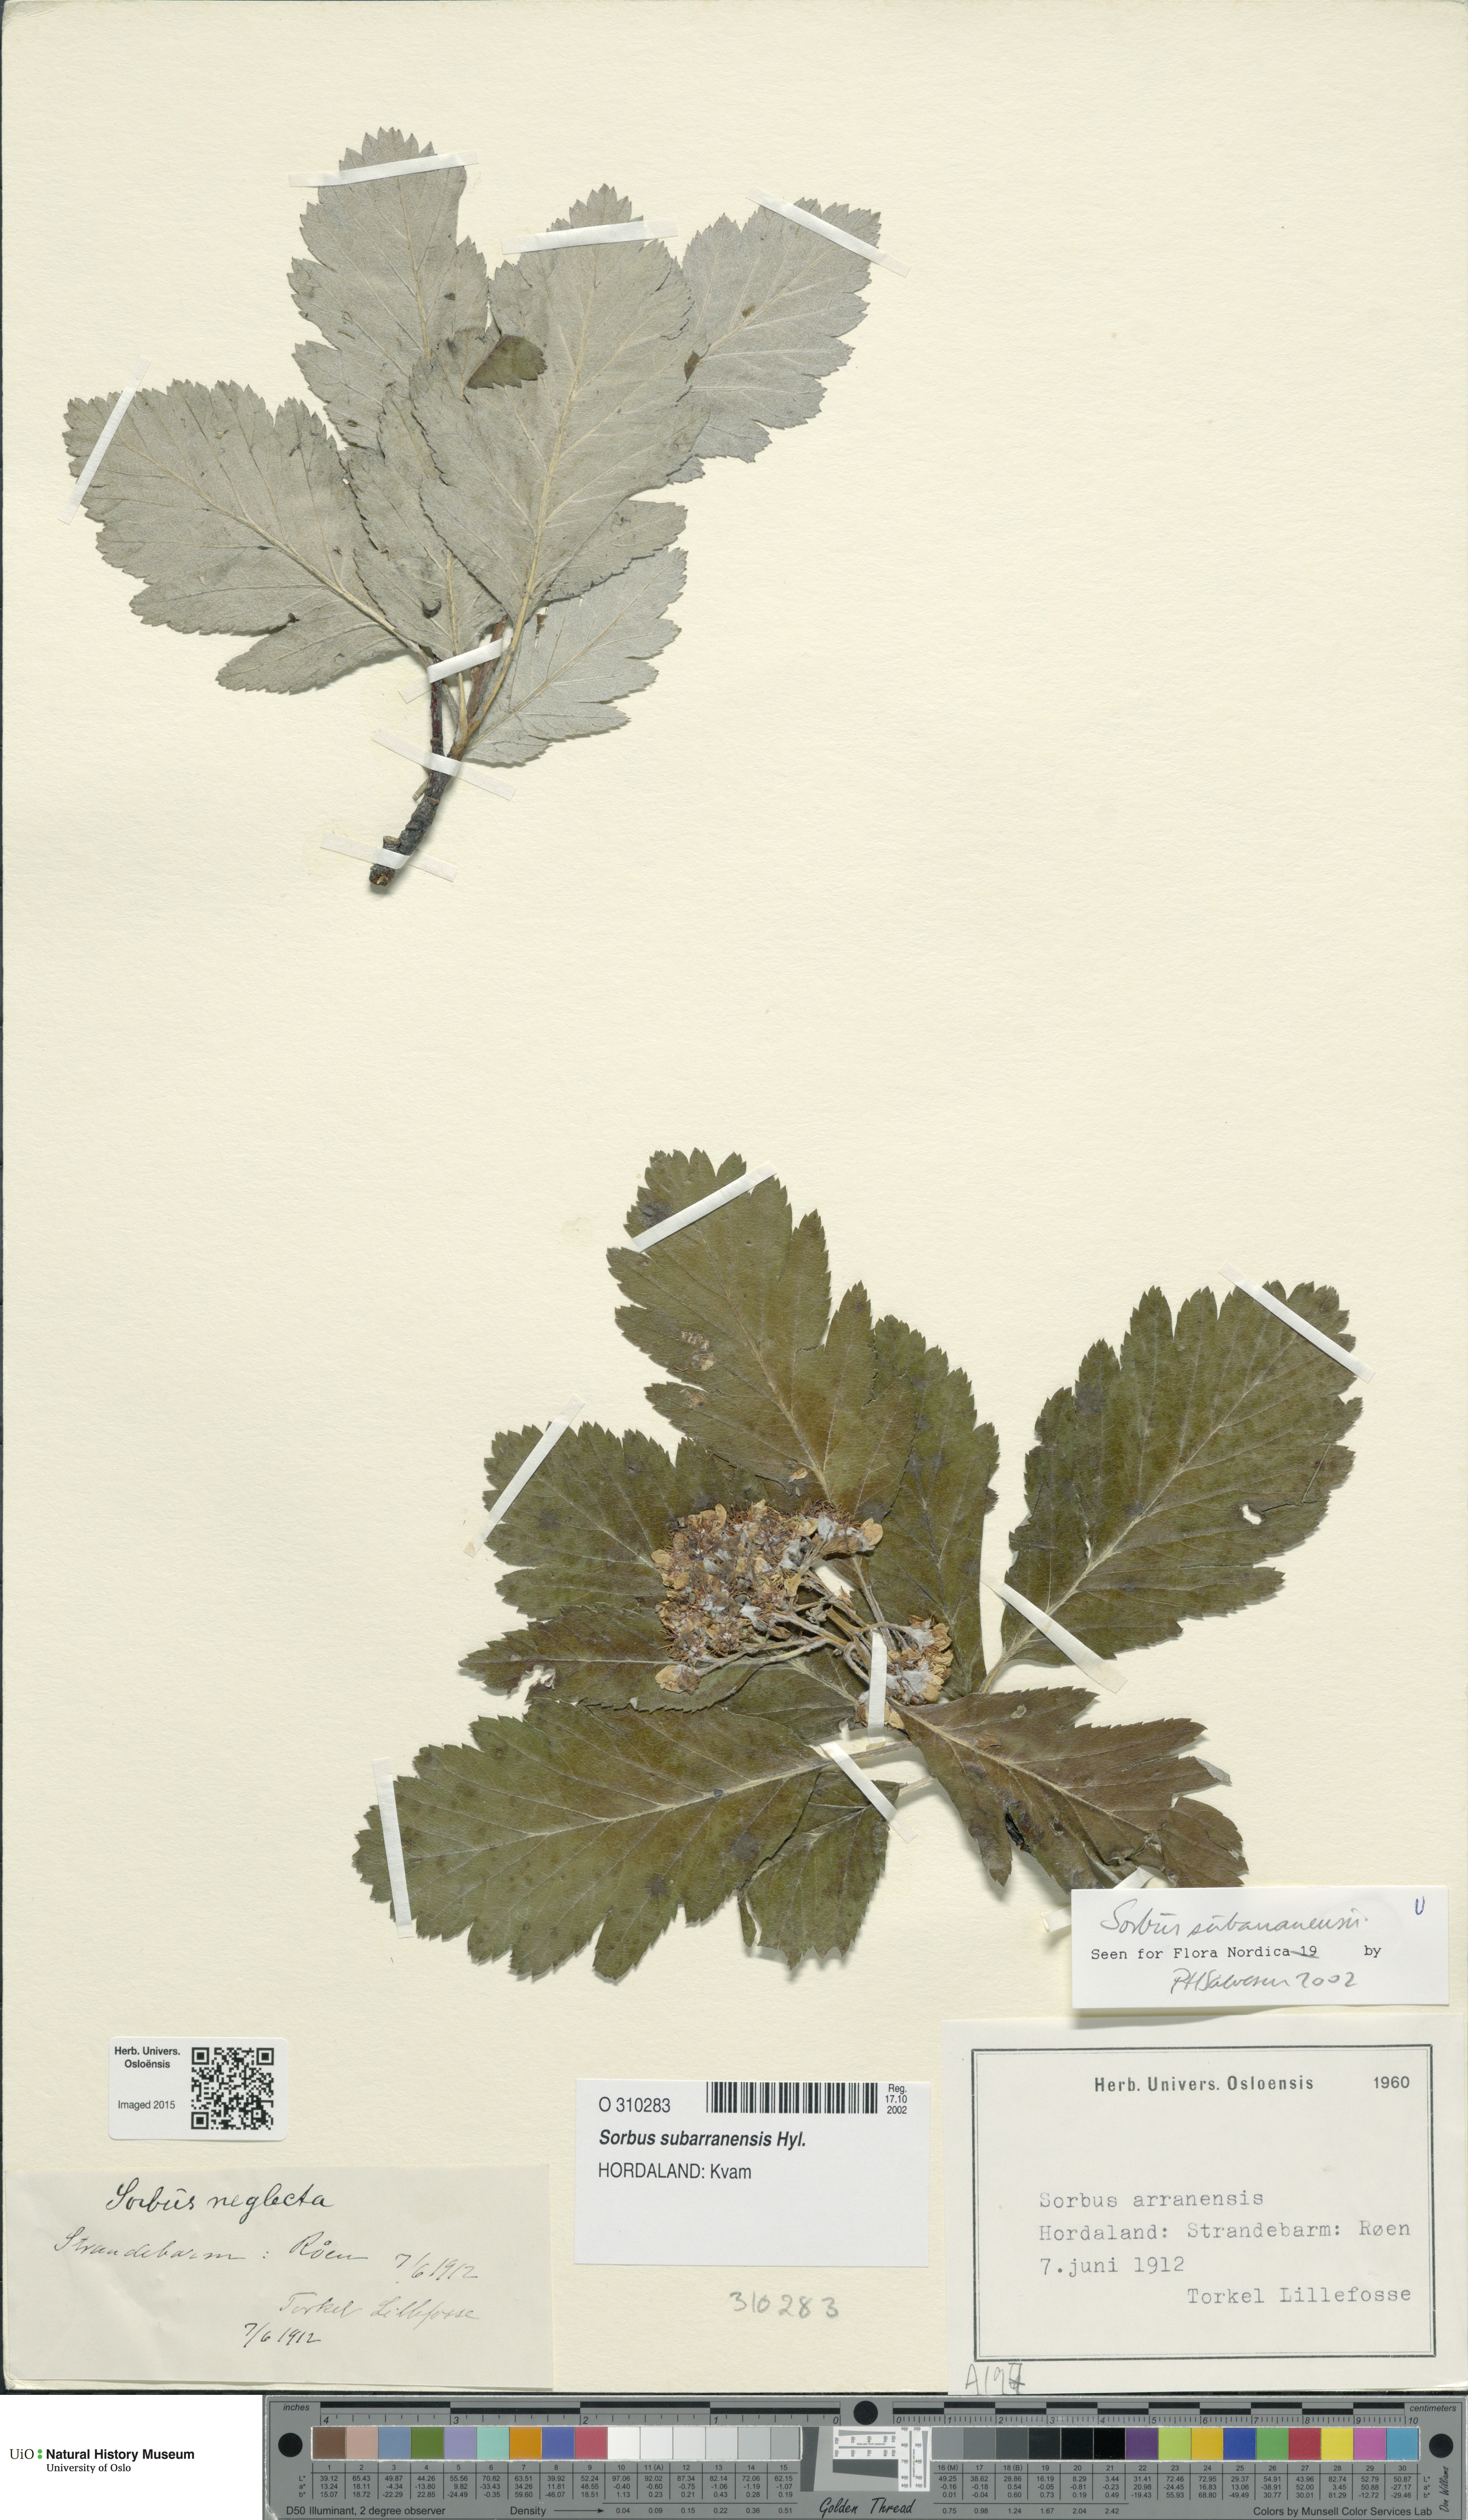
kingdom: Plantae
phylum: Tracheophyta
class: Magnoliopsida
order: Rosales
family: Rosaceae
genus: Hedlundia
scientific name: Hedlundia subarranensis
